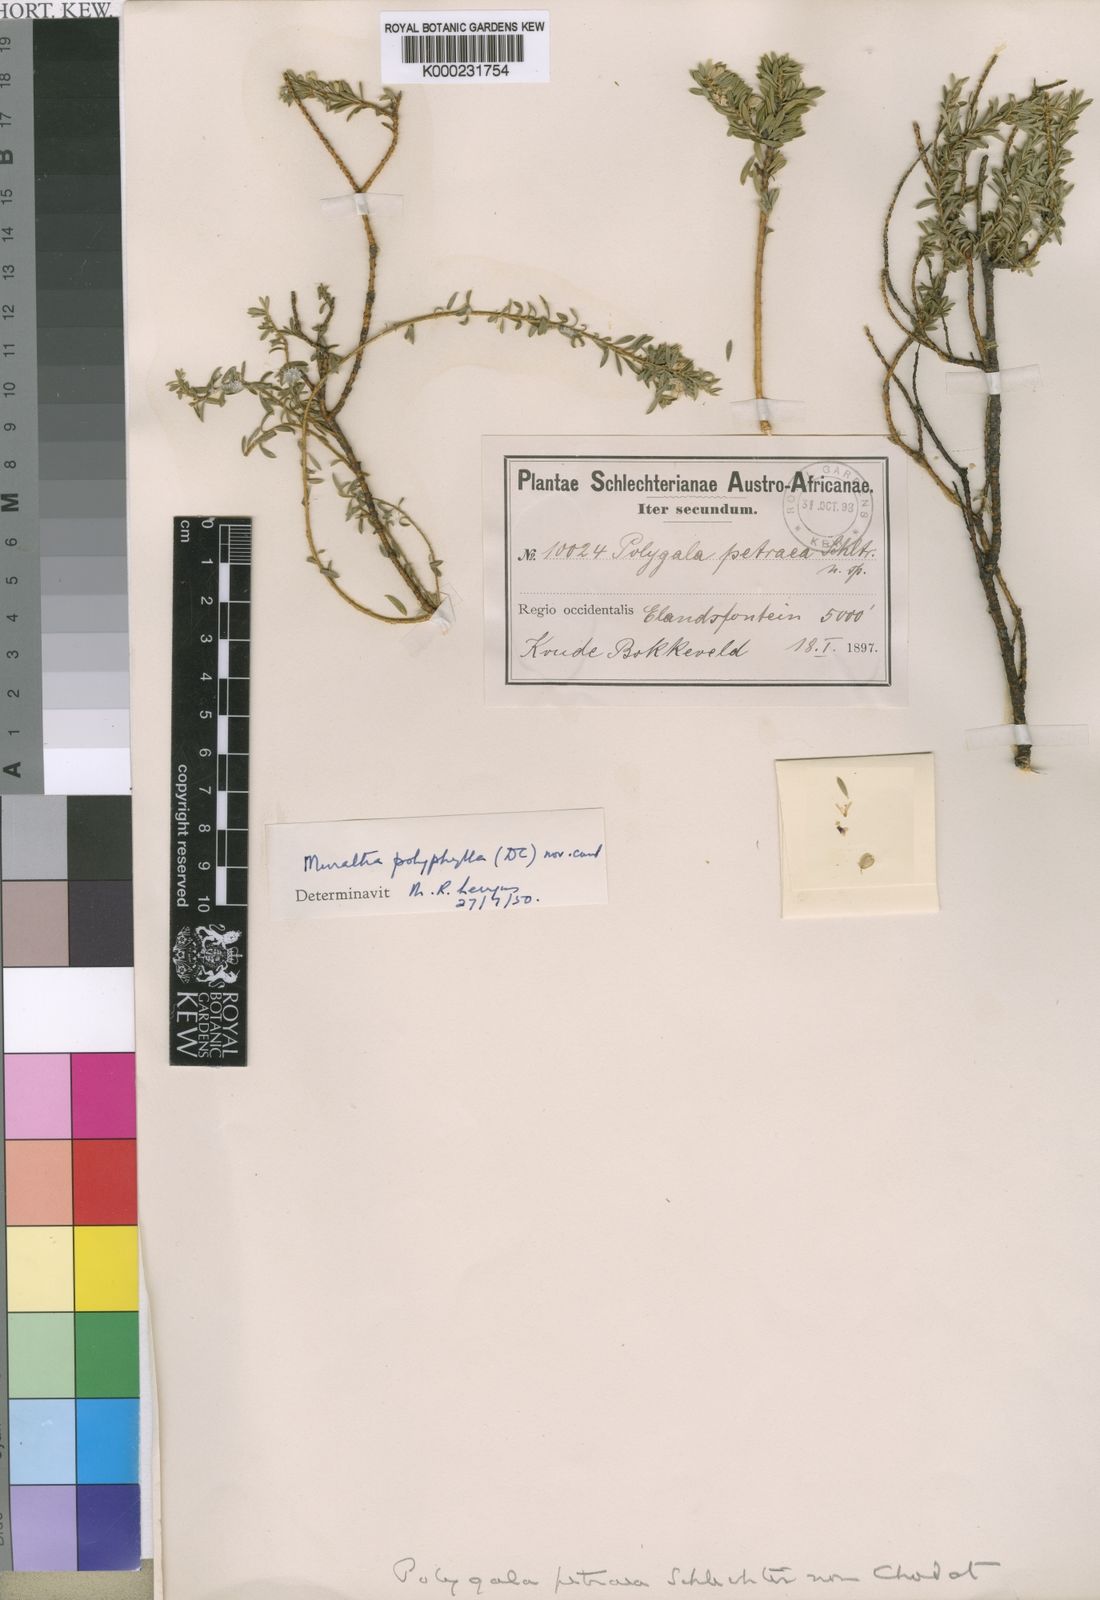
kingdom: Plantae
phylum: Tracheophyta
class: Magnoliopsida
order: Fabales
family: Polygalaceae
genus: Muraltia
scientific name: Muraltia polyphylla
